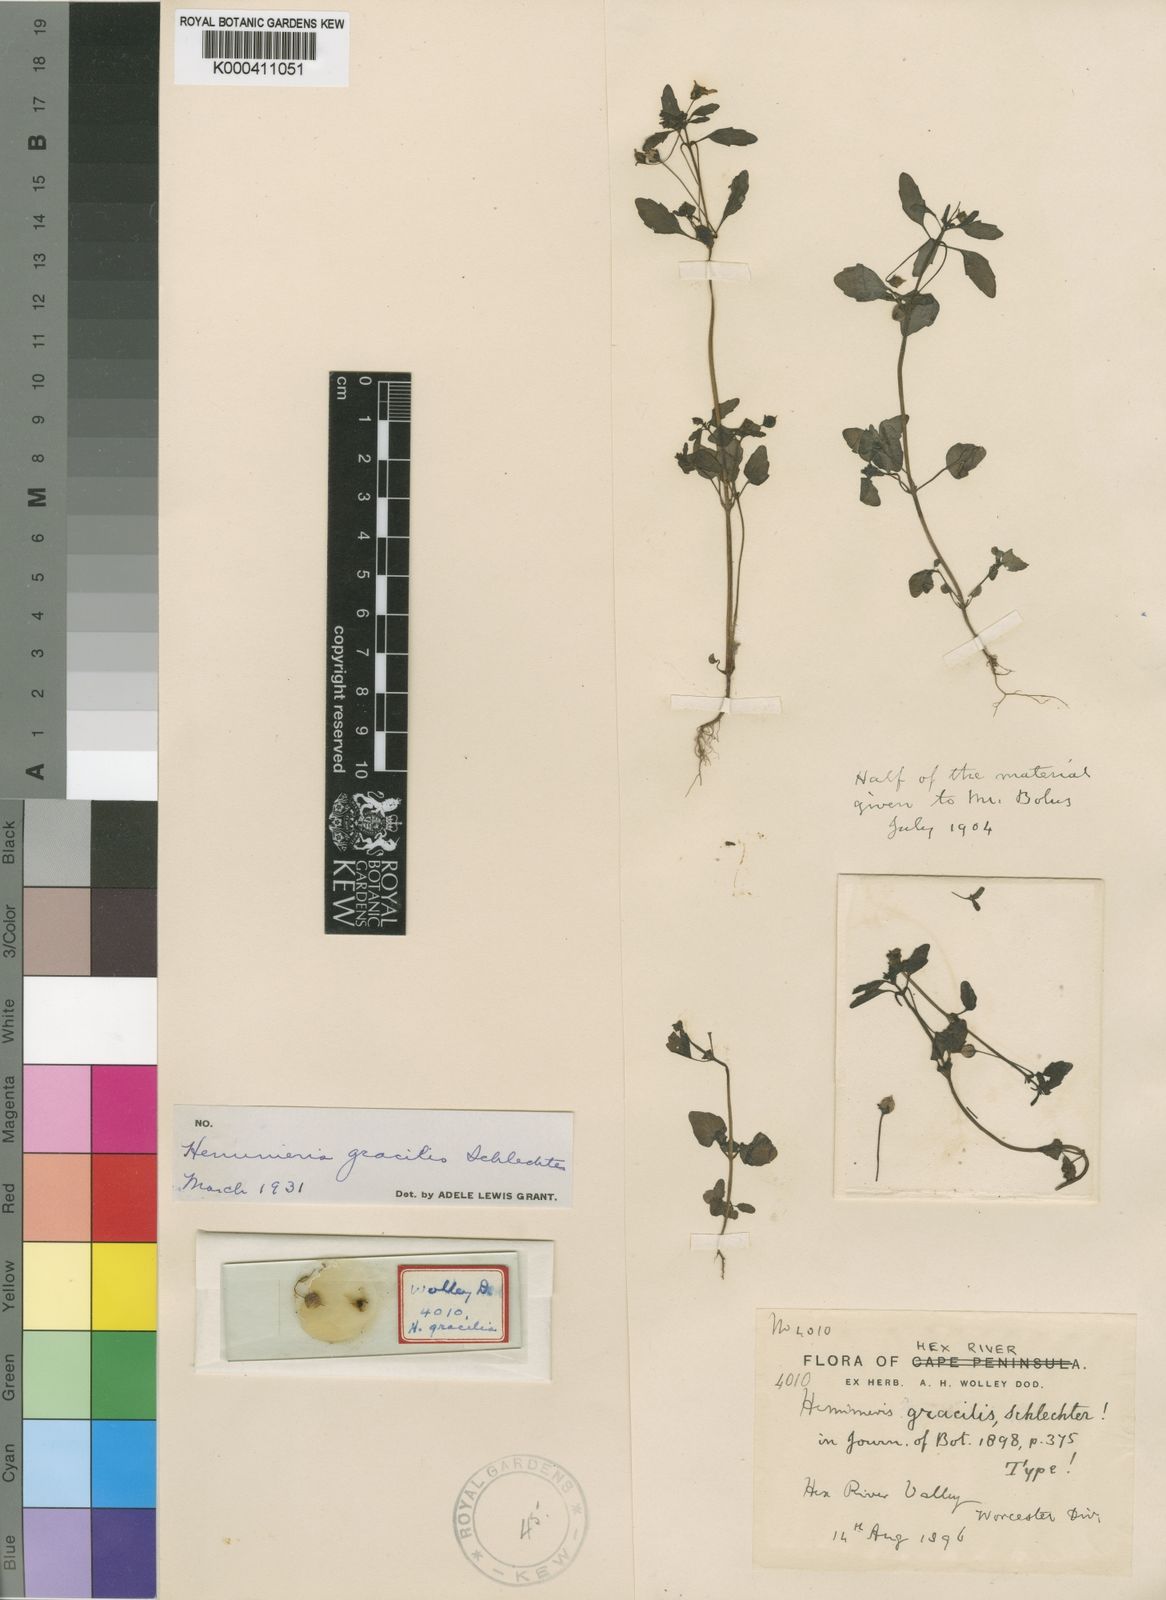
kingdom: Plantae
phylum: Tracheophyta
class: Magnoliopsida
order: Lamiales
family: Scrophulariaceae
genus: Hemimeris
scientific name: Hemimeris gracilis
